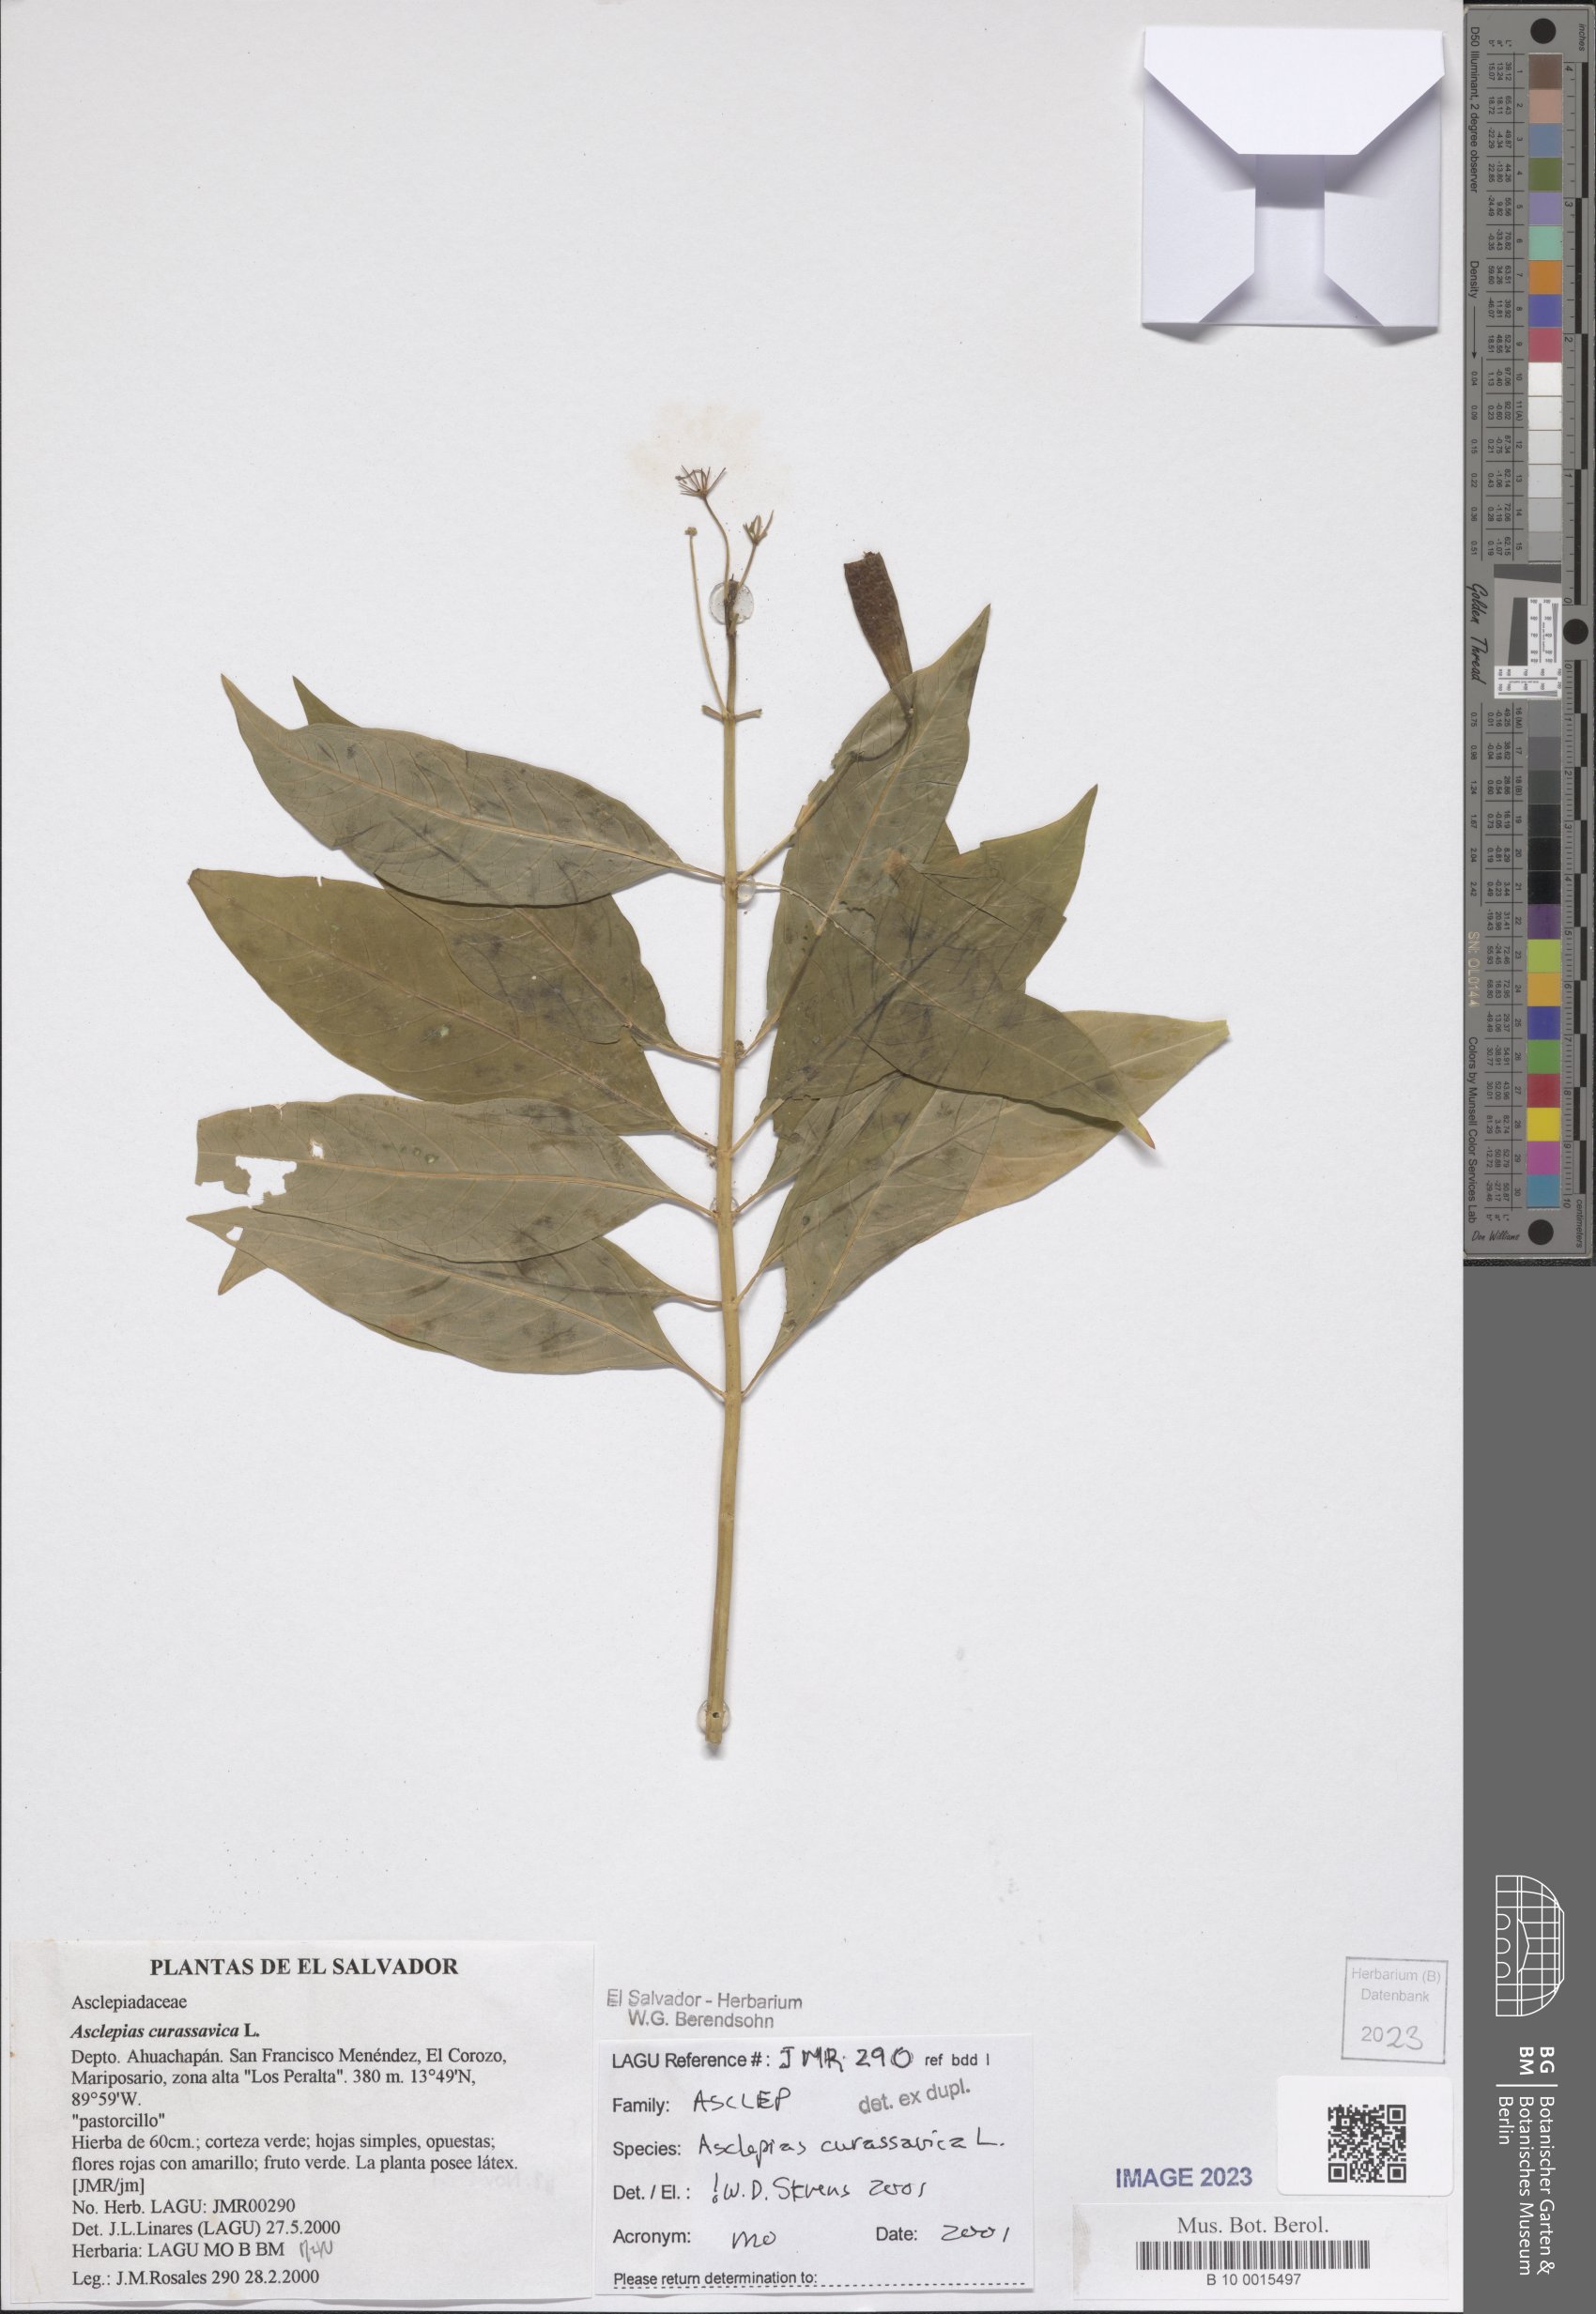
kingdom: Plantae
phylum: Tracheophyta
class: Magnoliopsida
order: Gentianales
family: Apocynaceae
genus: Asclepias
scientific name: Asclepias curassavica
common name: Bloodflower
